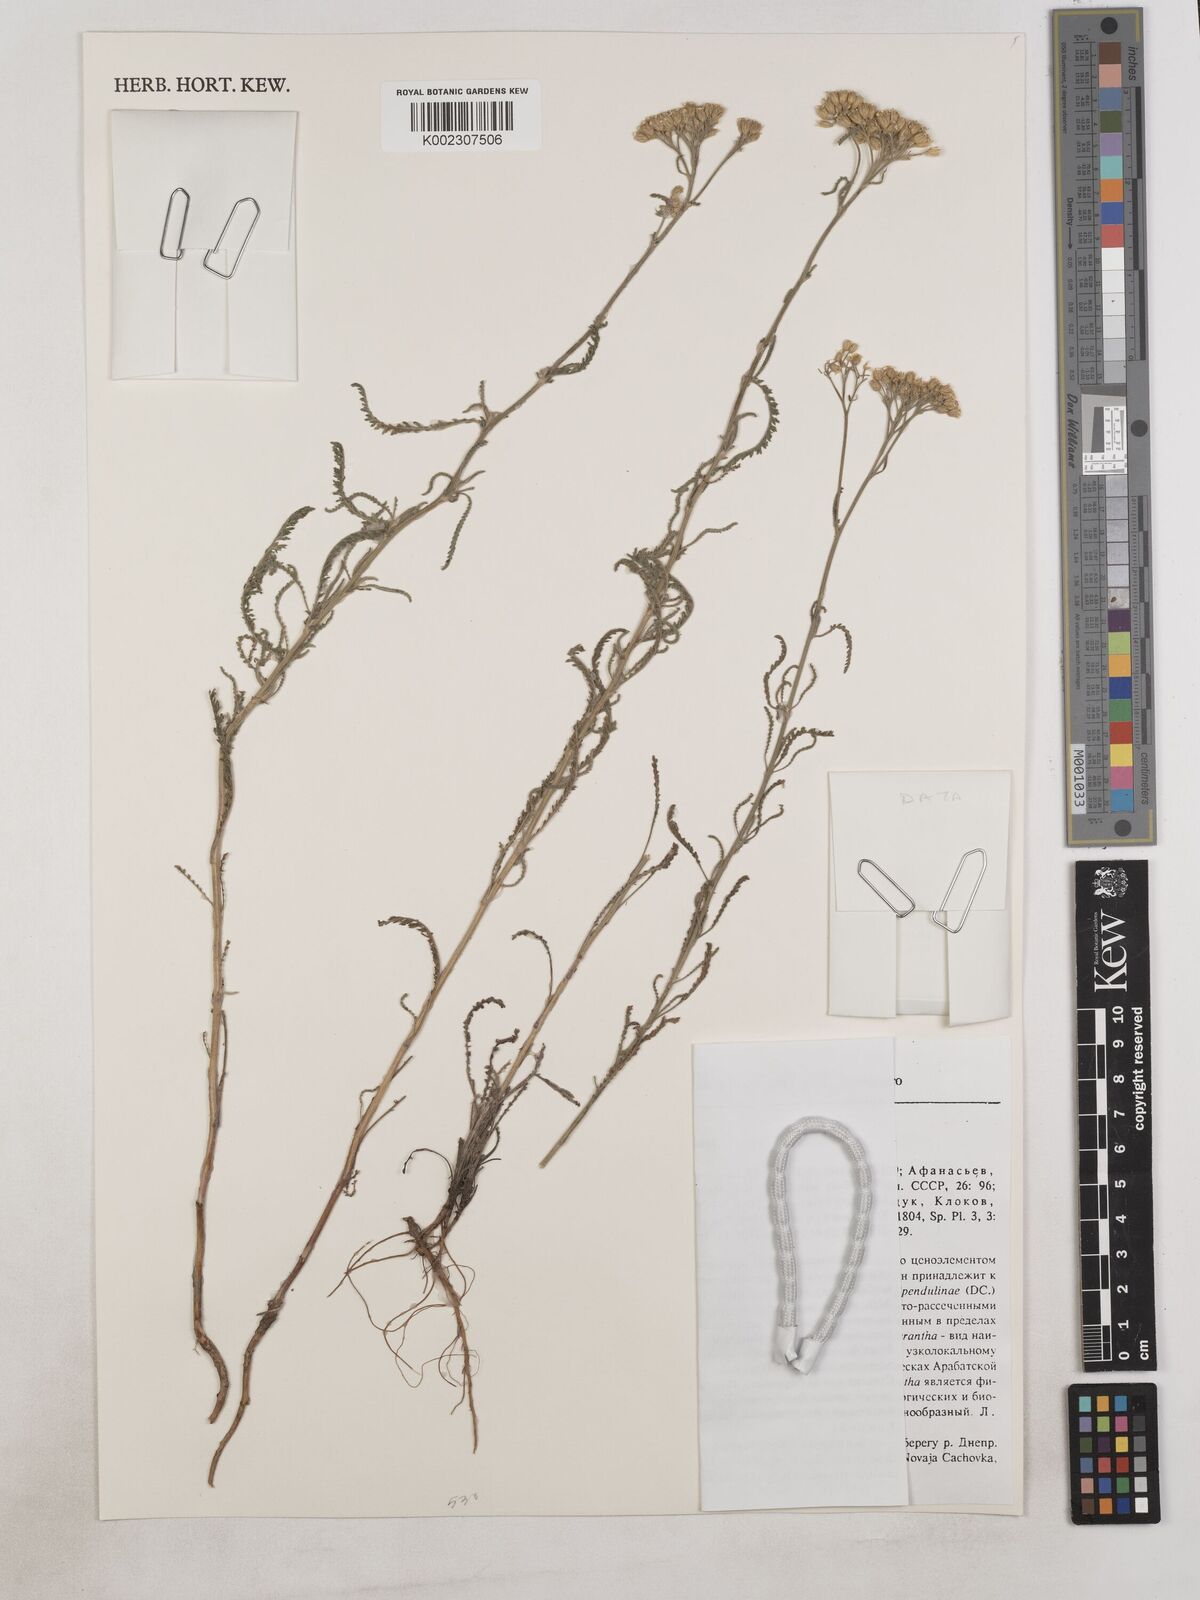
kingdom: Plantae
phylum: Tracheophyta
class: Magnoliopsida
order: Asterales
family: Asteraceae
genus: Achillea
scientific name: Achillea micrantha
